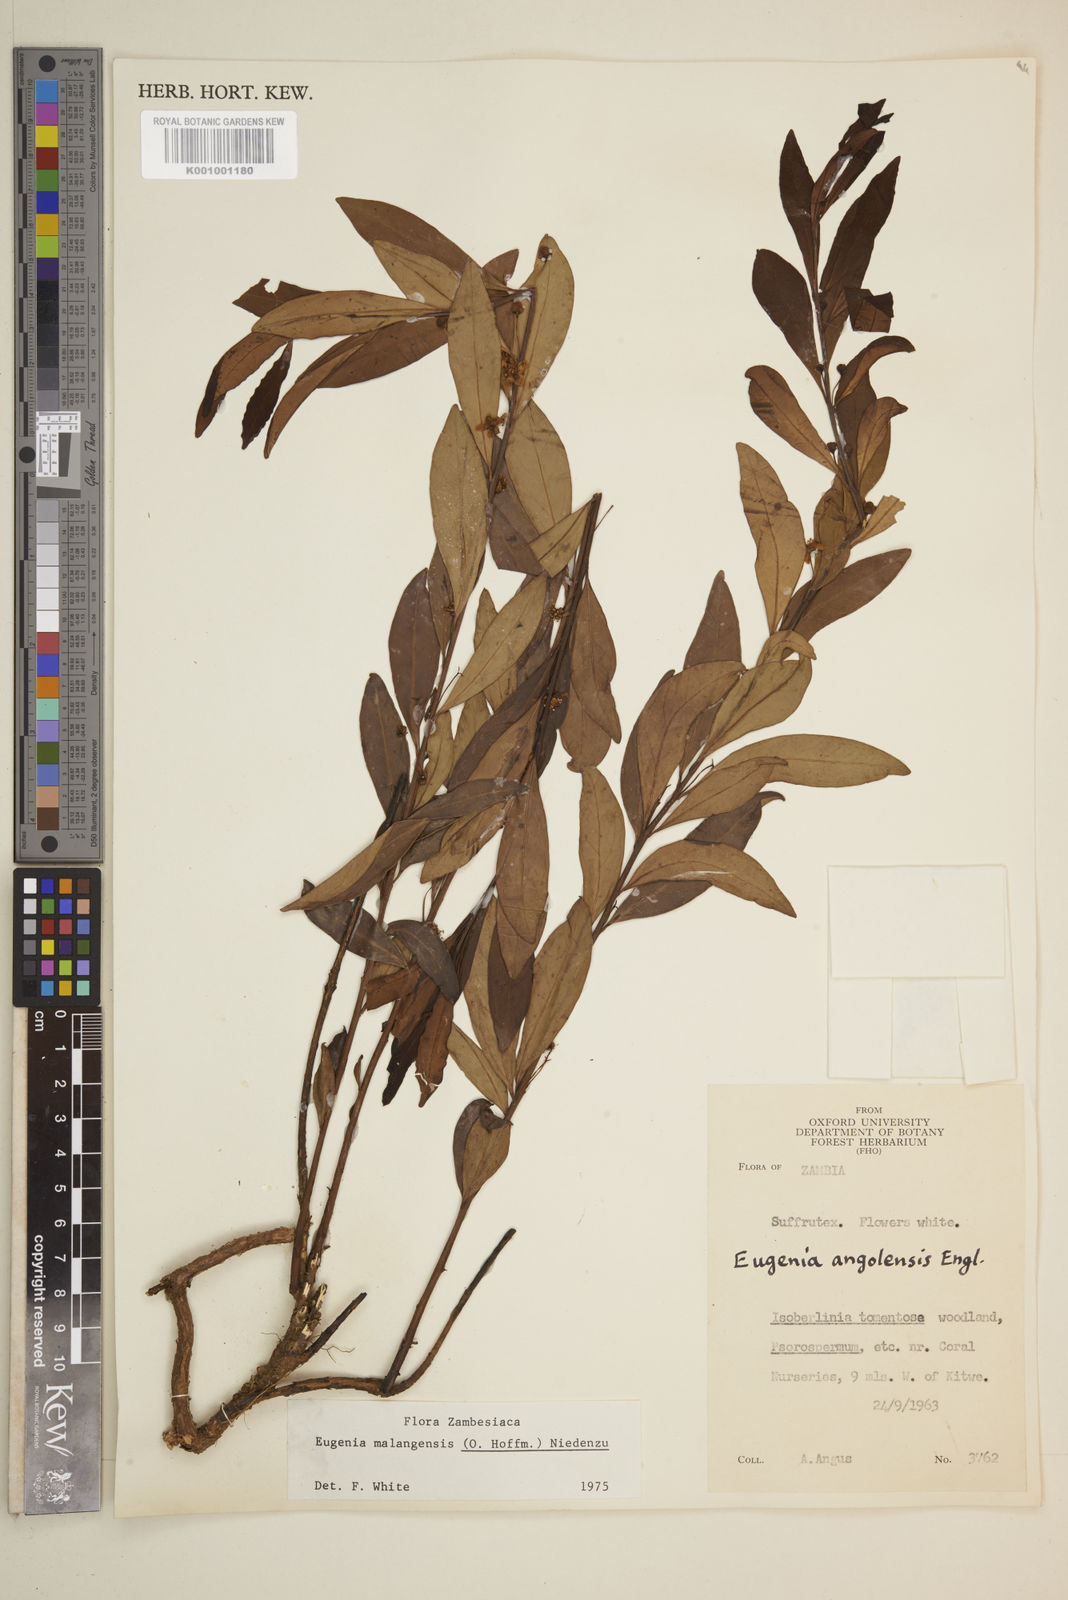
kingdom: Plantae
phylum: Tracheophyta
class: Magnoliopsida
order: Myrtales
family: Myrtaceae
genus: Eugenia
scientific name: Eugenia malangensis
